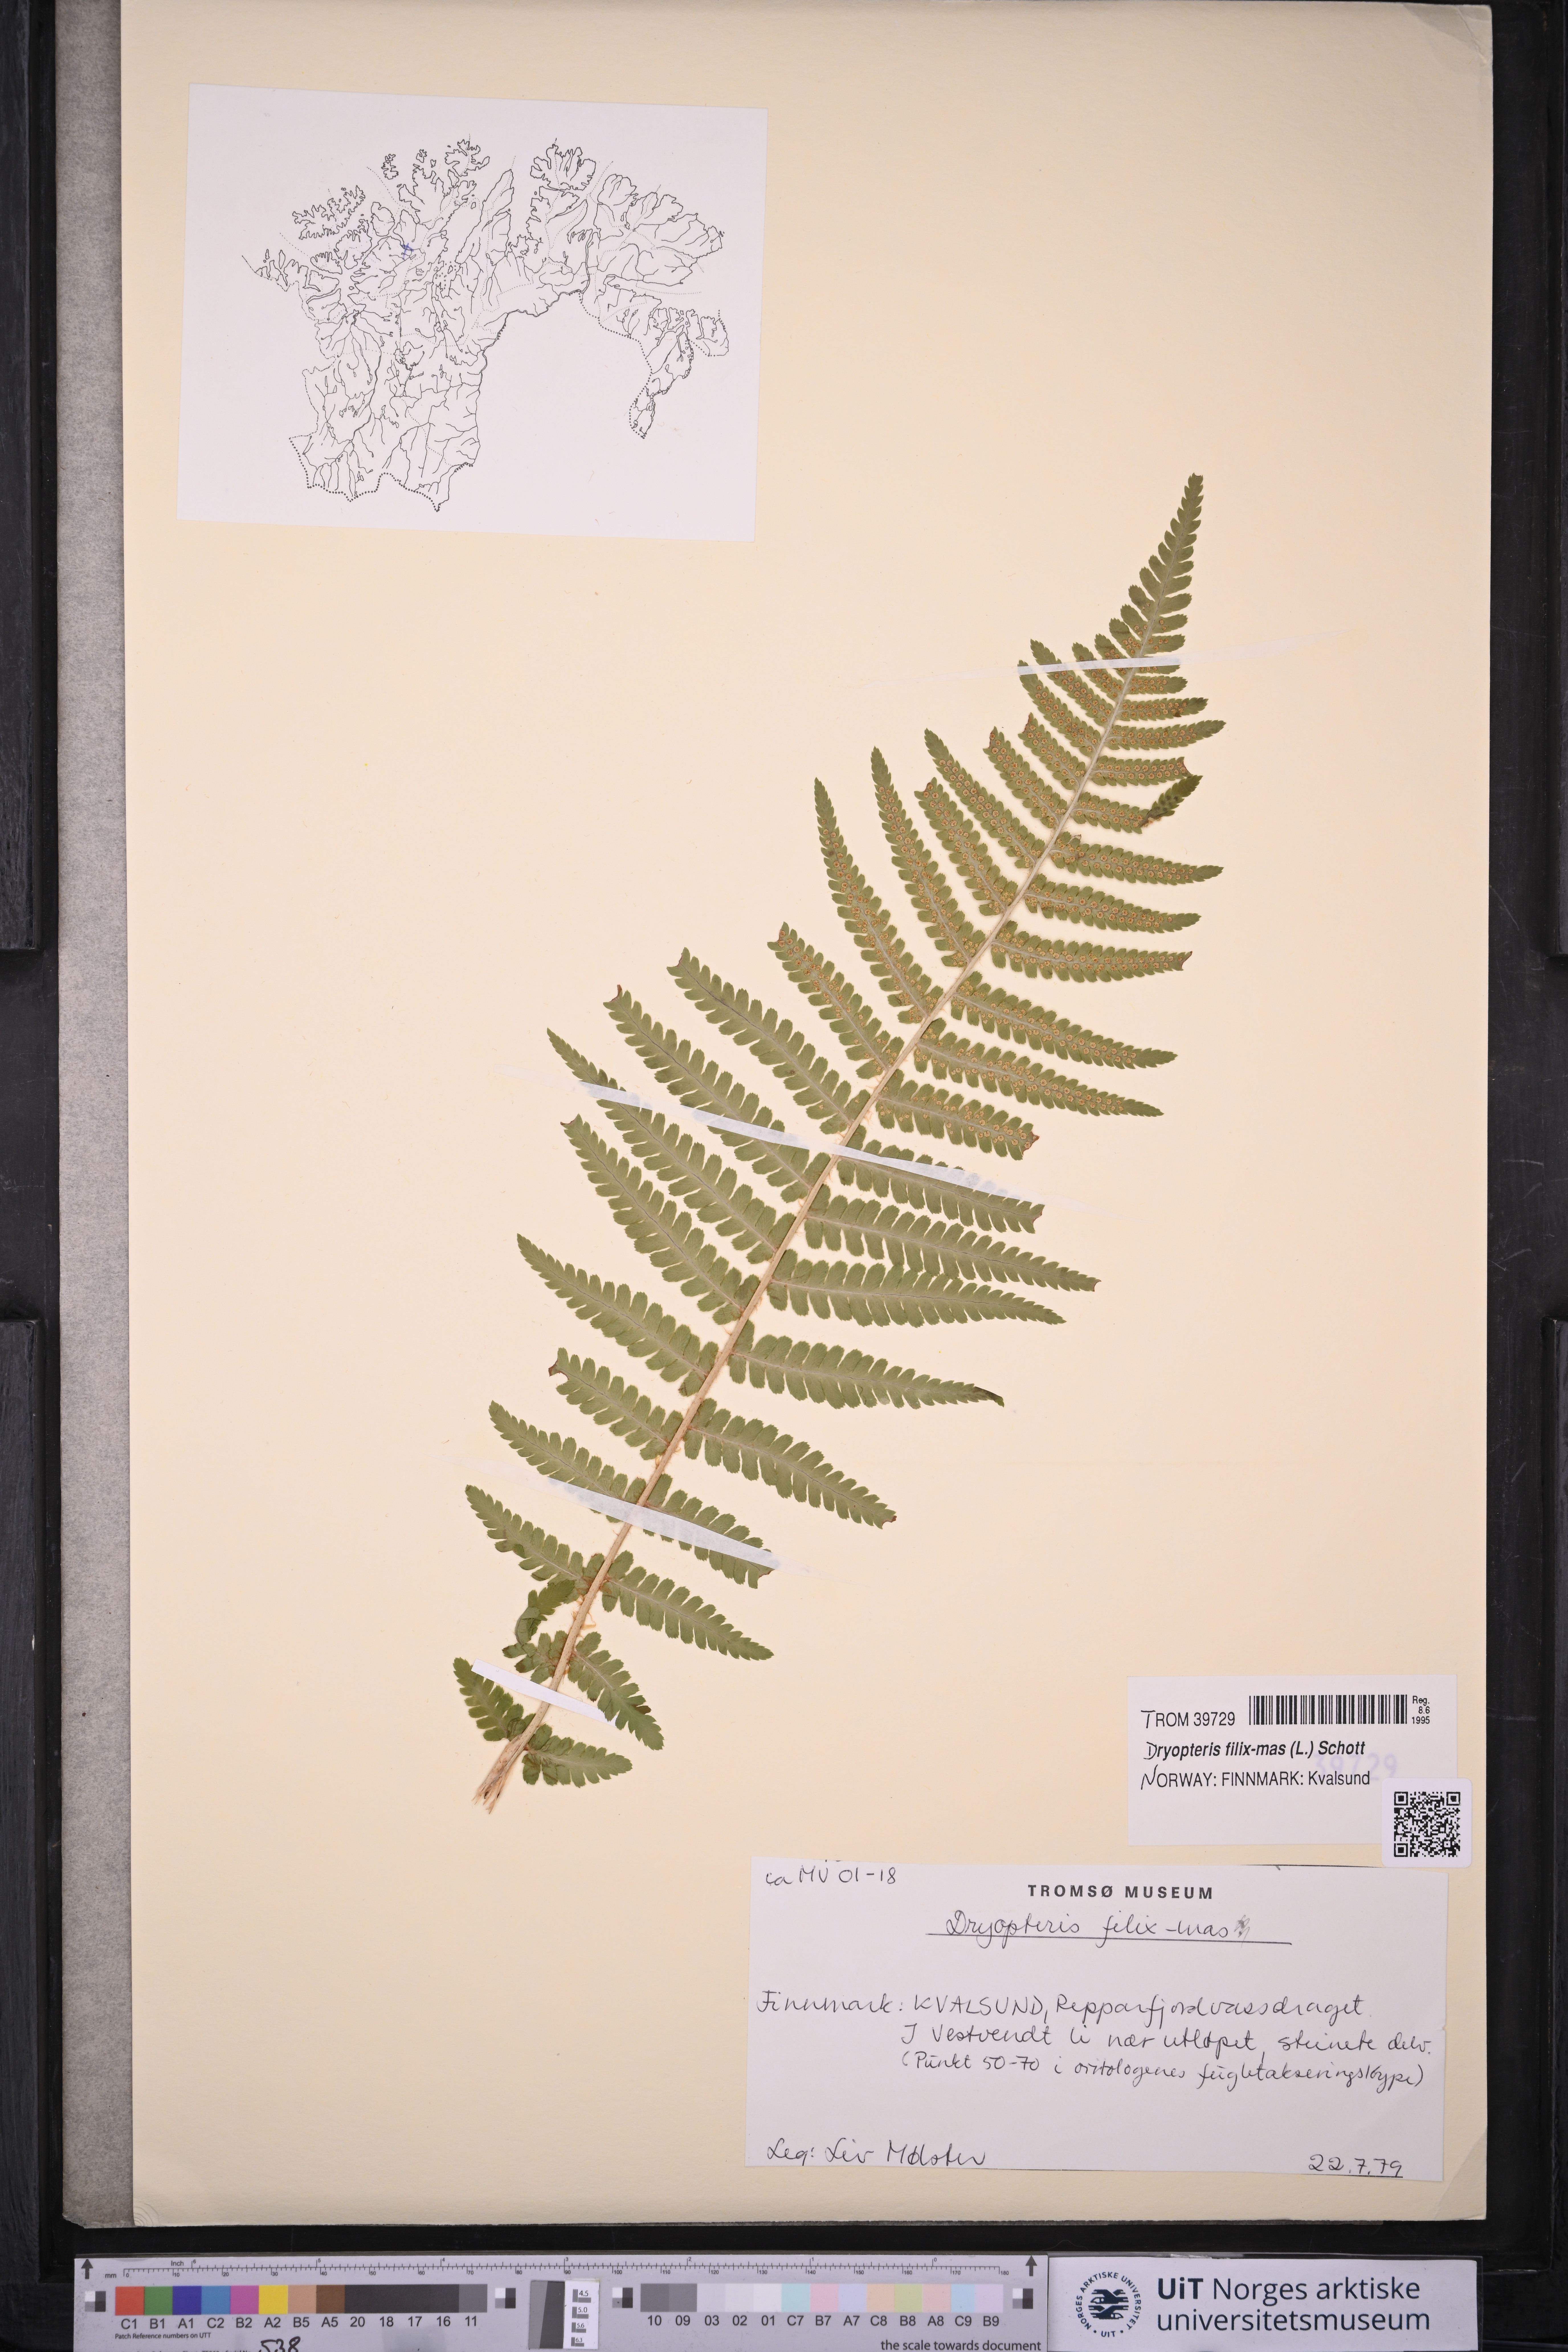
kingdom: Plantae
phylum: Tracheophyta
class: Polypodiopsida
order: Polypodiales
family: Dryopteridaceae
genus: Dryopteris
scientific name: Dryopteris filix-mas
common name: Male fern
